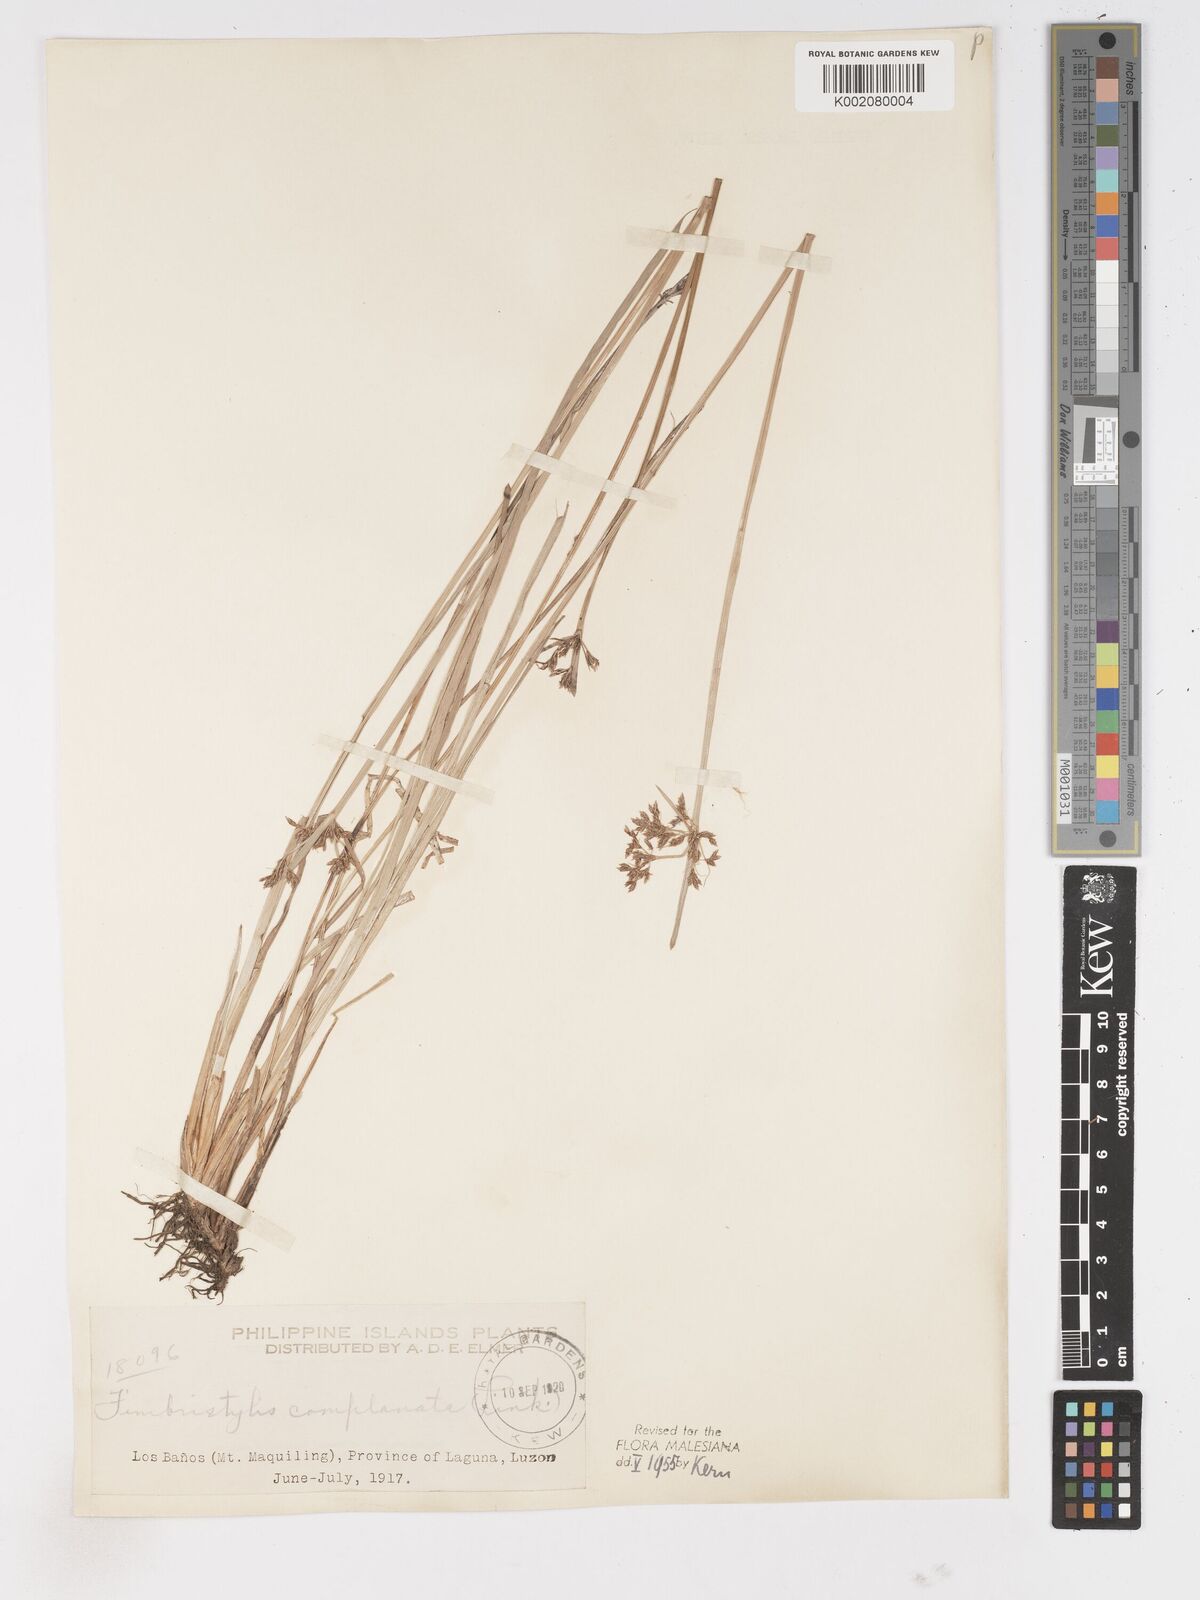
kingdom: Plantae
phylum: Tracheophyta
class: Liliopsida
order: Poales
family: Cyperaceae
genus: Fimbristylis
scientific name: Fimbristylis complanata
